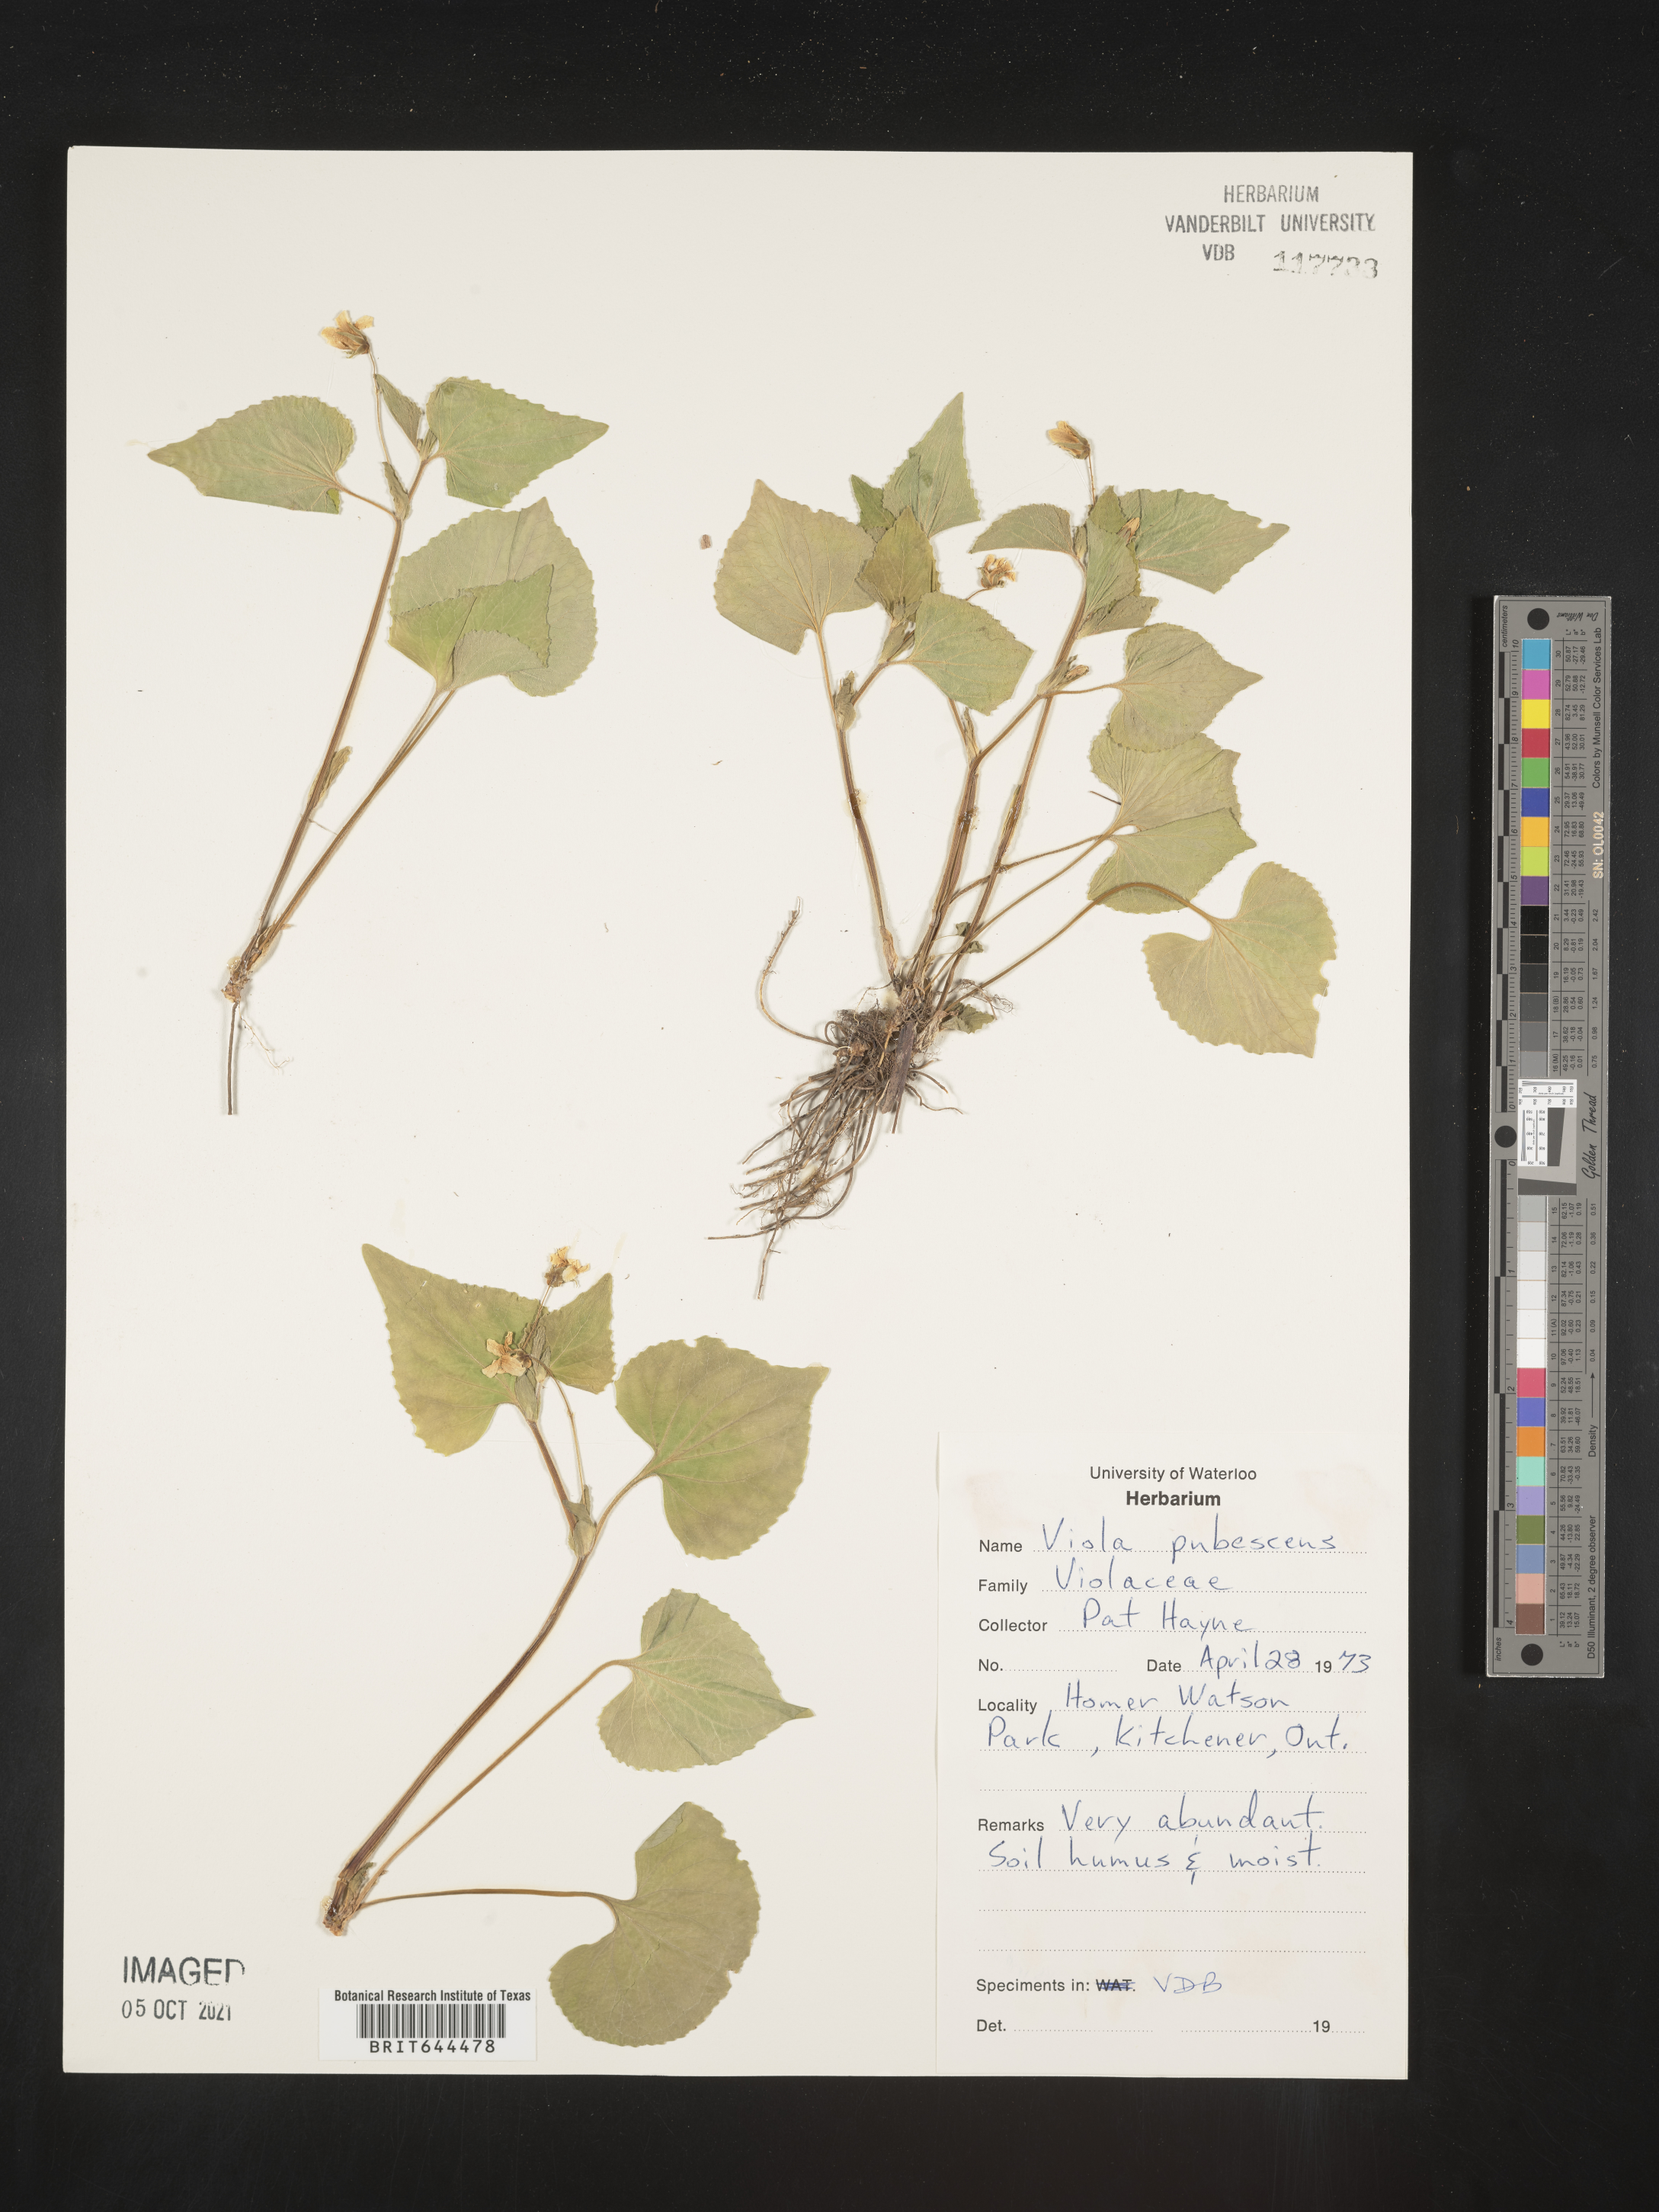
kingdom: Plantae
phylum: Tracheophyta
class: Magnoliopsida
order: Malpighiales
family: Violaceae
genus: Viola
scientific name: Viola
